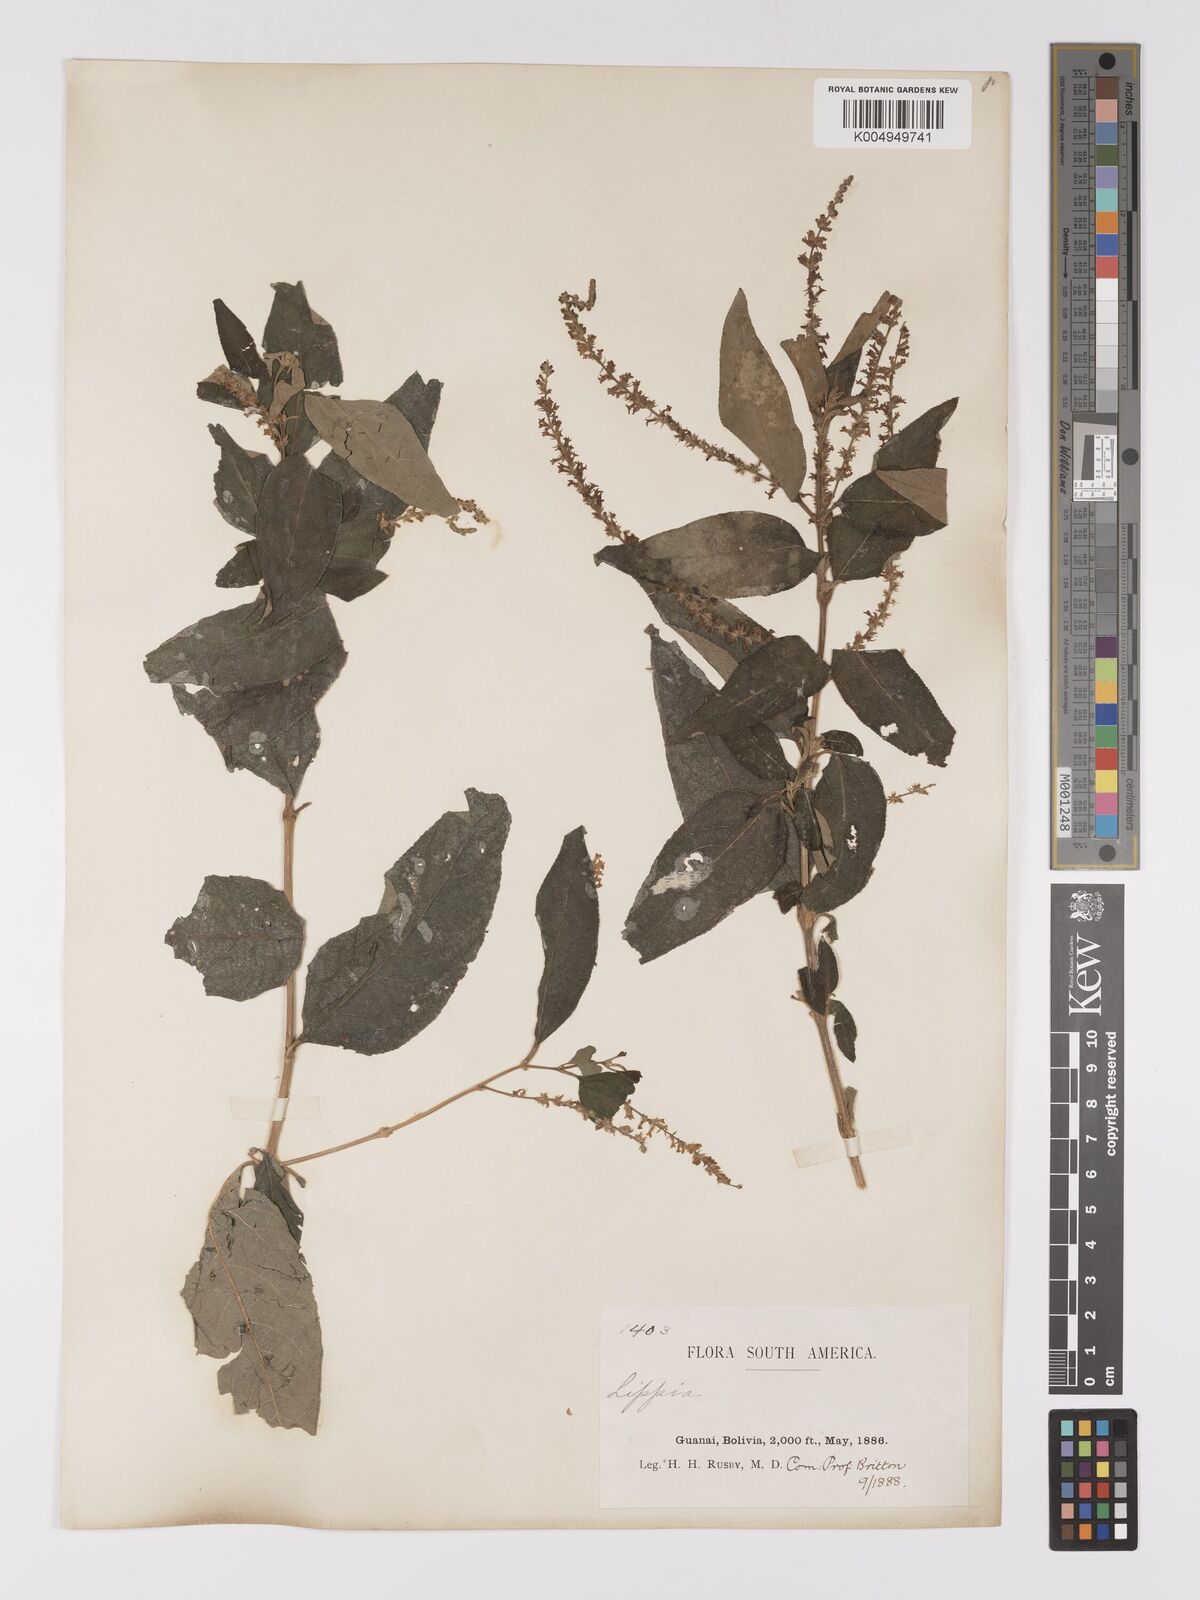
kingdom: Plantae
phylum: Tracheophyta
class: Magnoliopsida
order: Lamiales
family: Verbenaceae
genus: Aloysia
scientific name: Aloysia virgata
